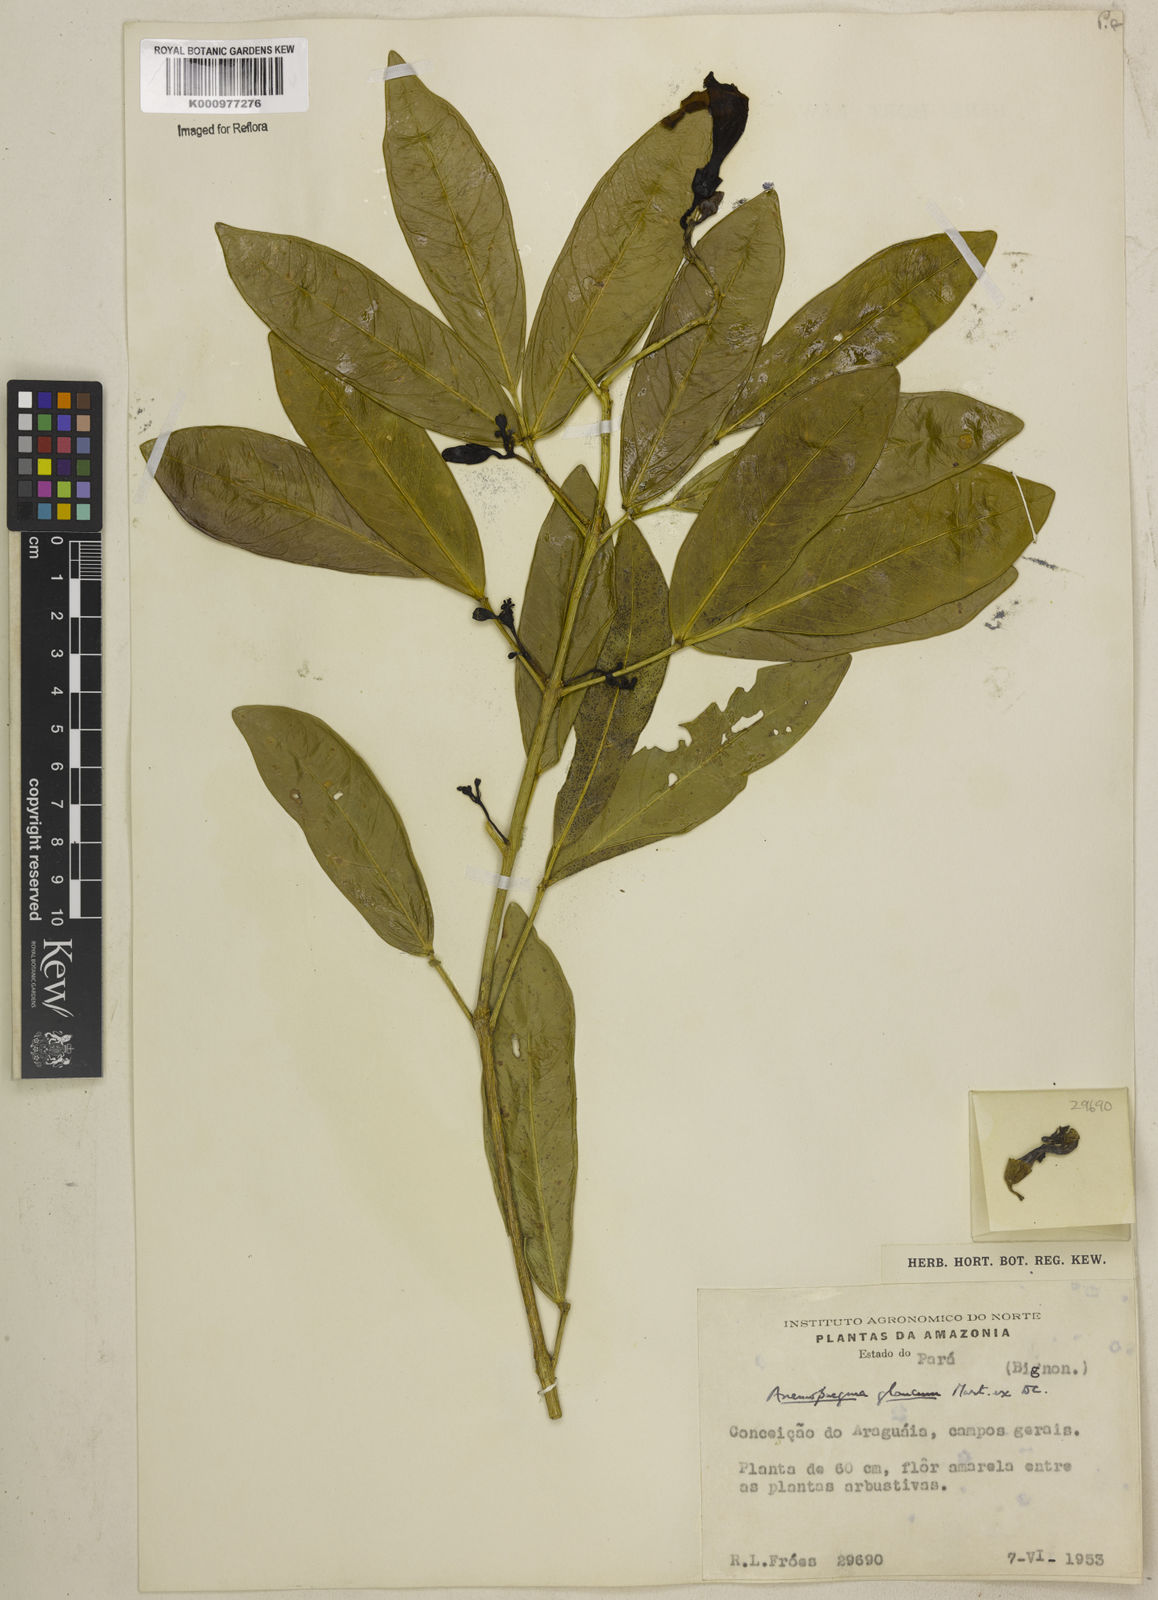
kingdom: Plantae
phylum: Tracheophyta
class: Magnoliopsida
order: Lamiales
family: Bignoniaceae
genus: Anemopaegma
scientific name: Anemopaegma glaucum
